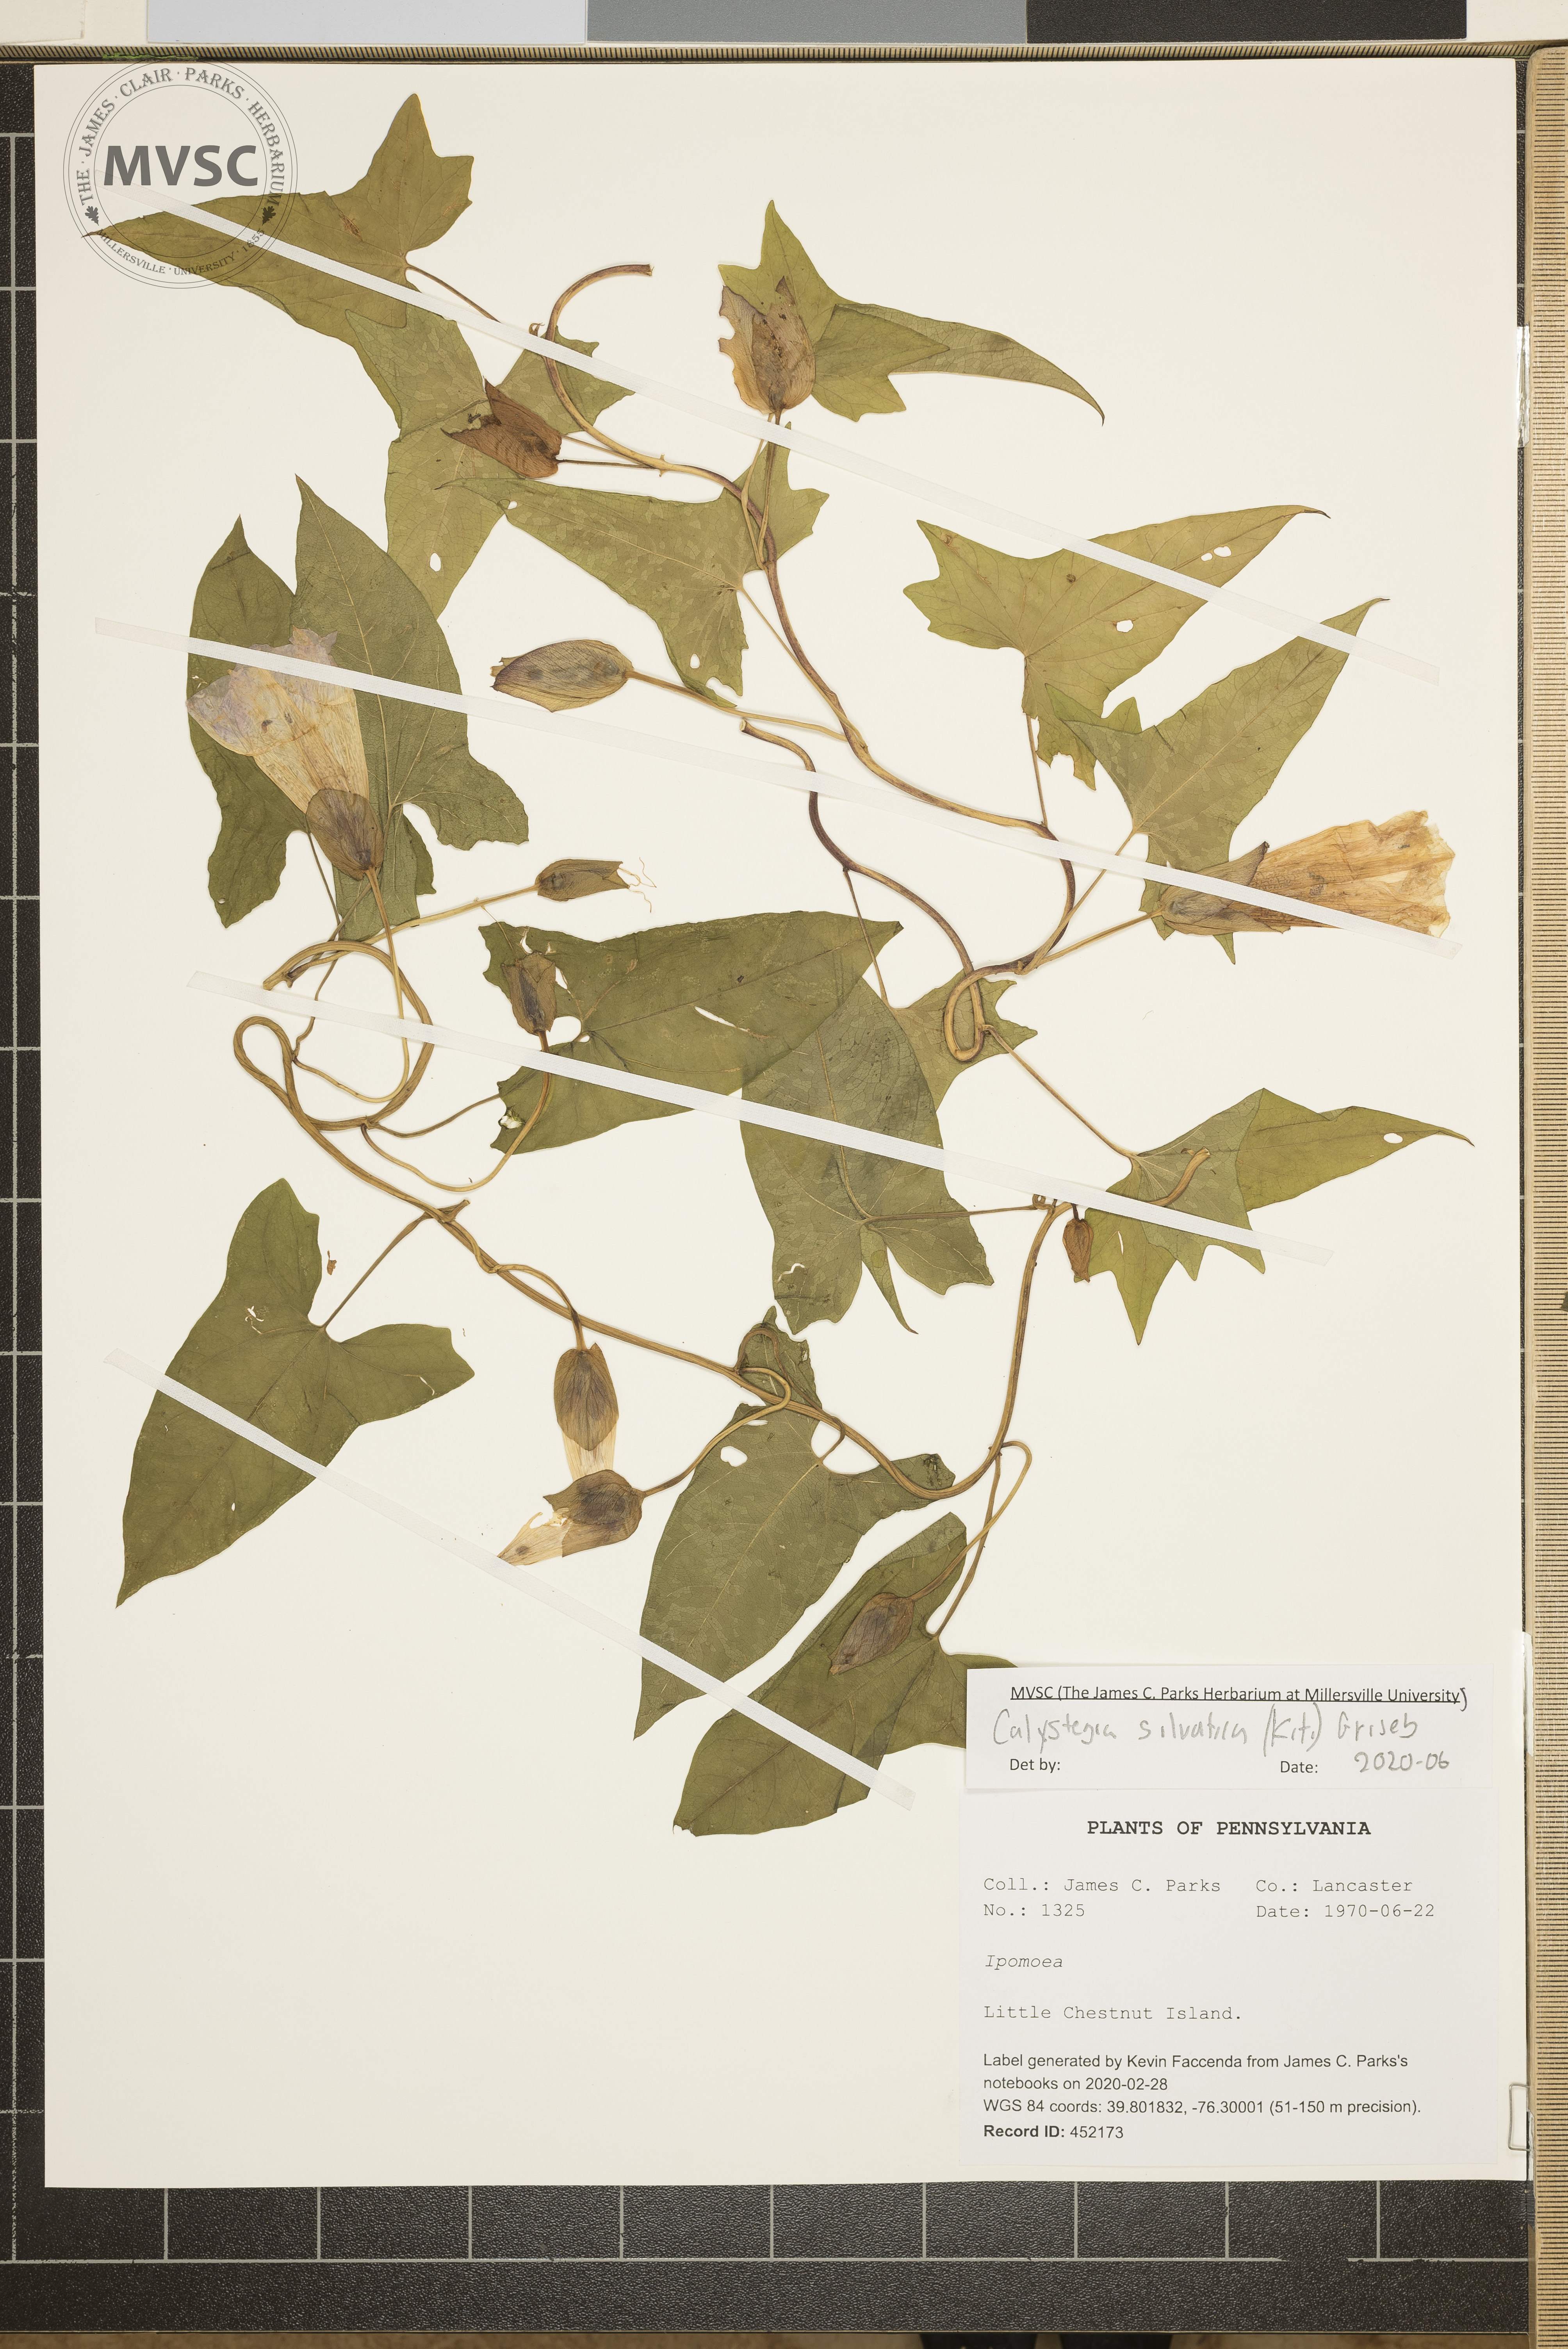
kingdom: Plantae
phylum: Tracheophyta
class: Magnoliopsida
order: Solanales
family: Convolvulaceae
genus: Calystegia
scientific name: Calystegia silvatica
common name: Large bindweed
